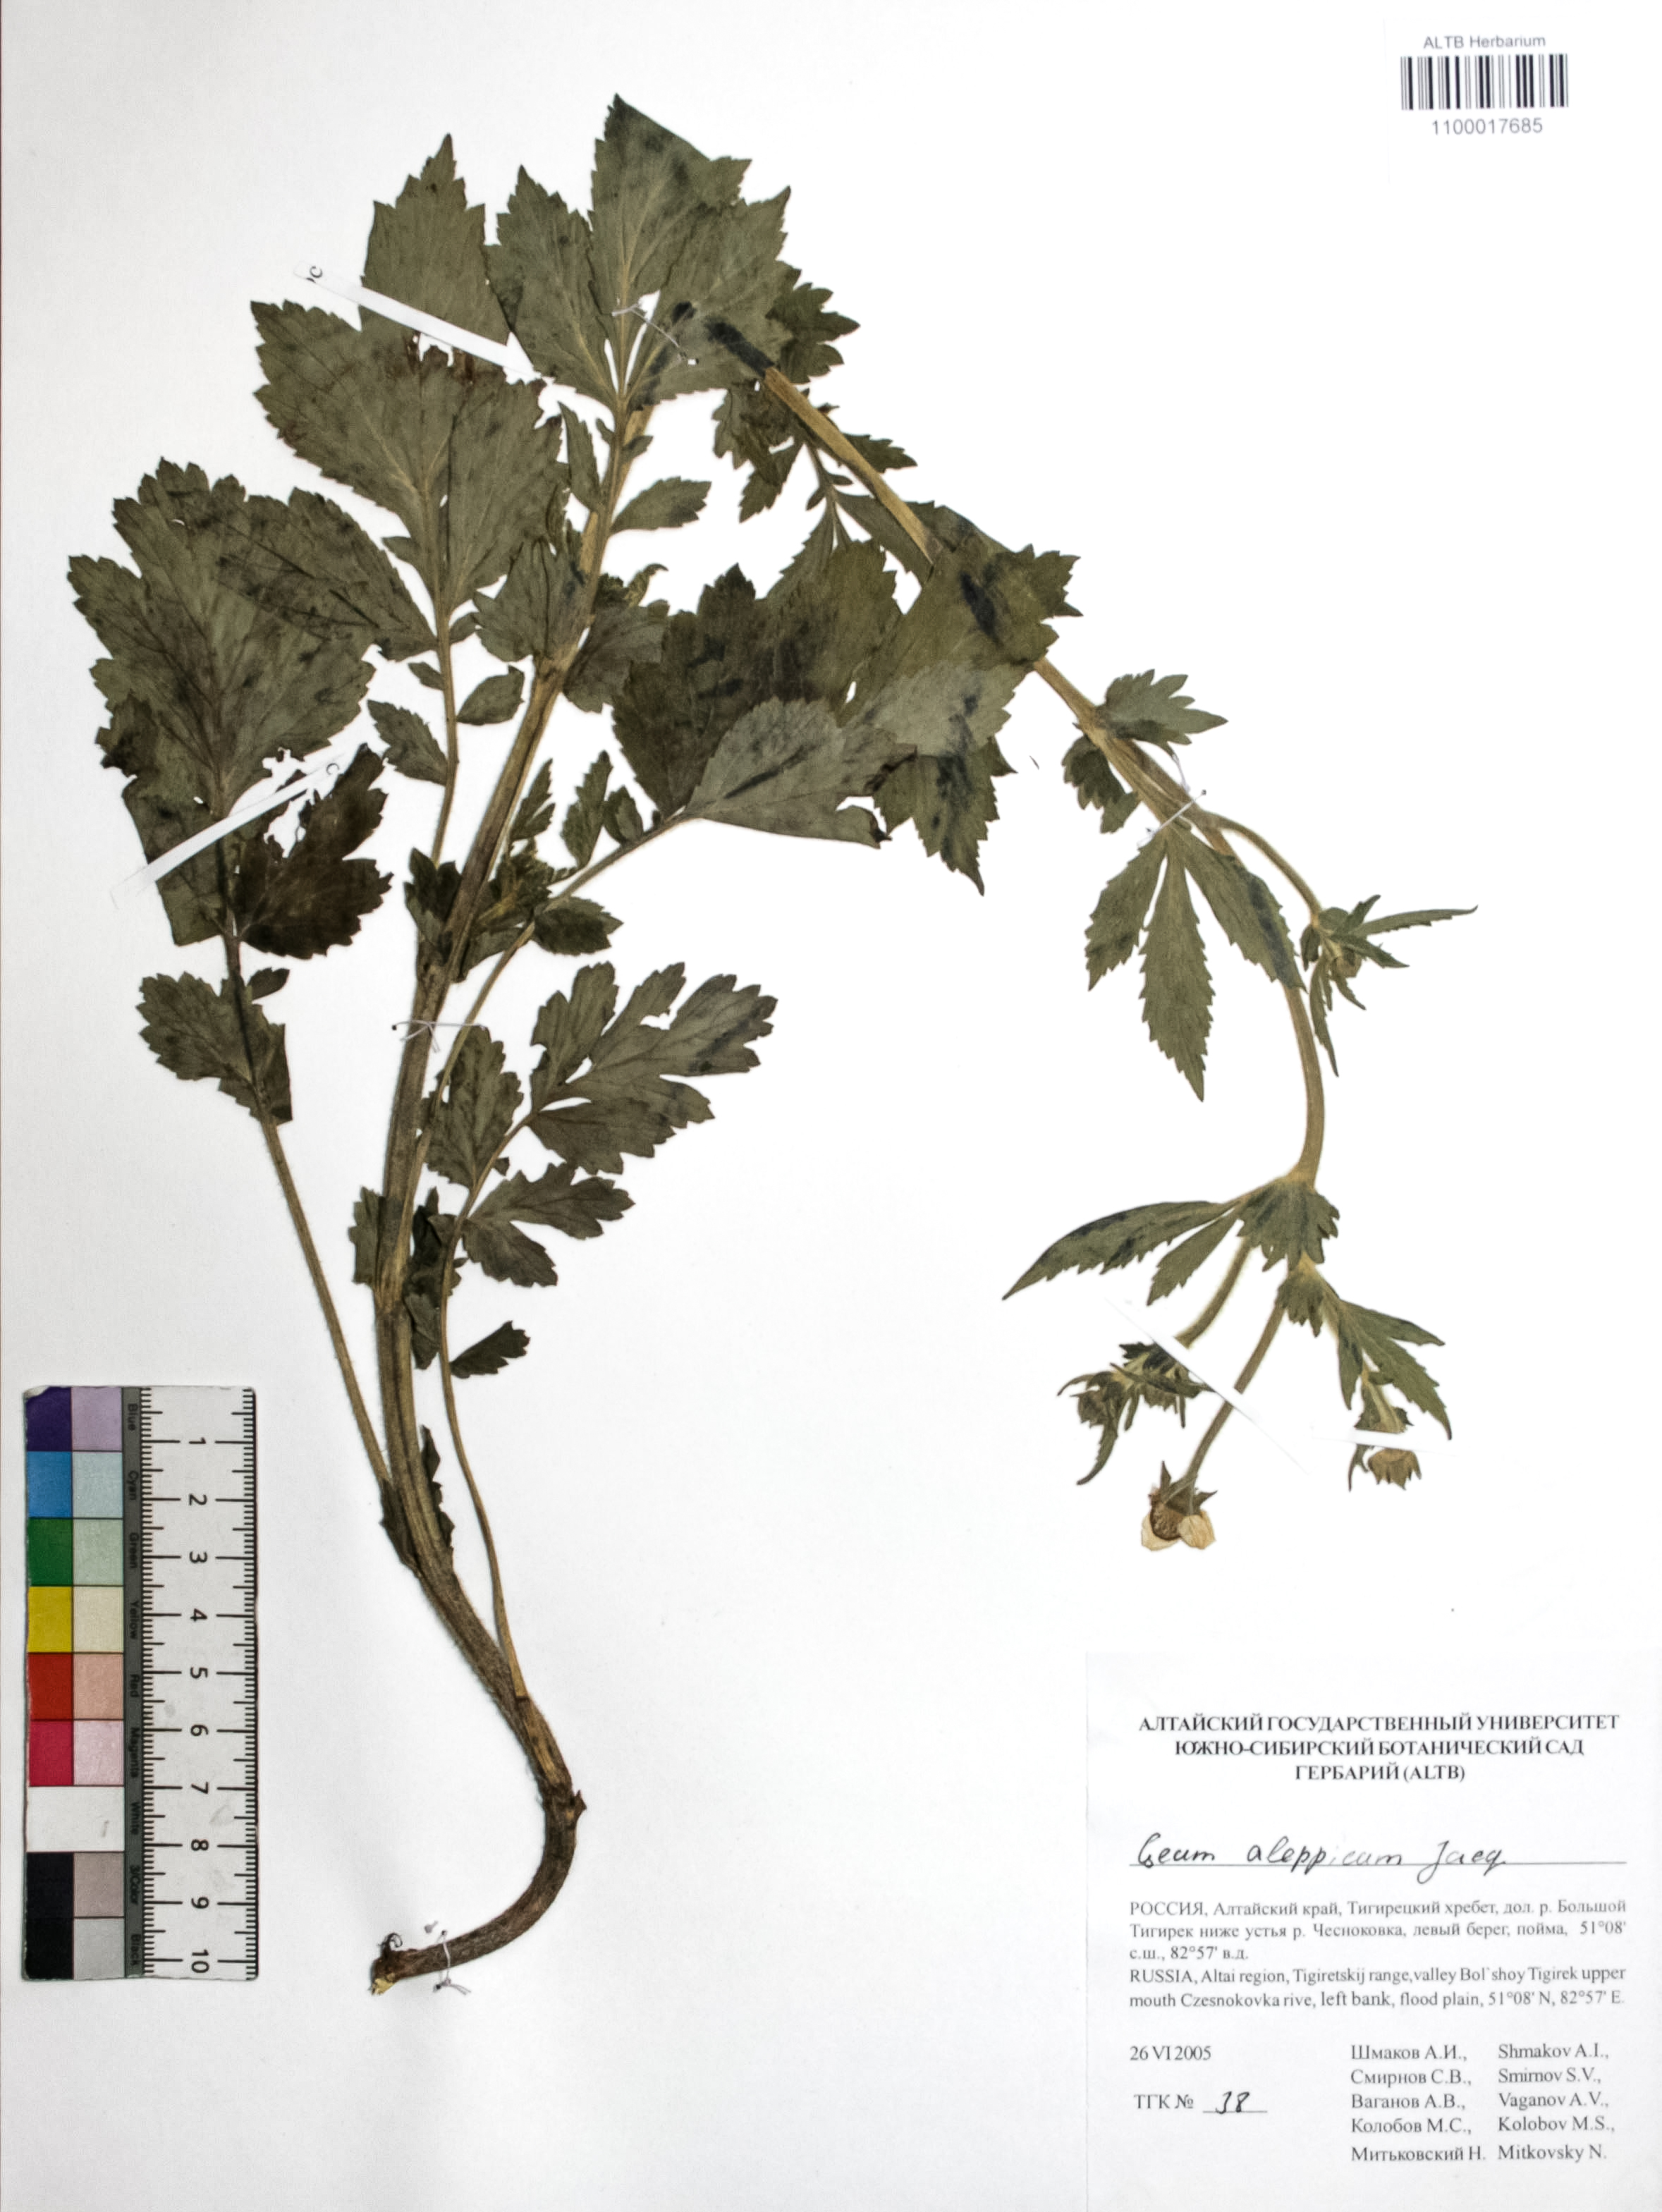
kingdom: Plantae
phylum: Tracheophyta
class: Magnoliopsida
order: Rosales
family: Rosaceae
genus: Geum
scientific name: Geum aleppicum
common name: Yellow avens
